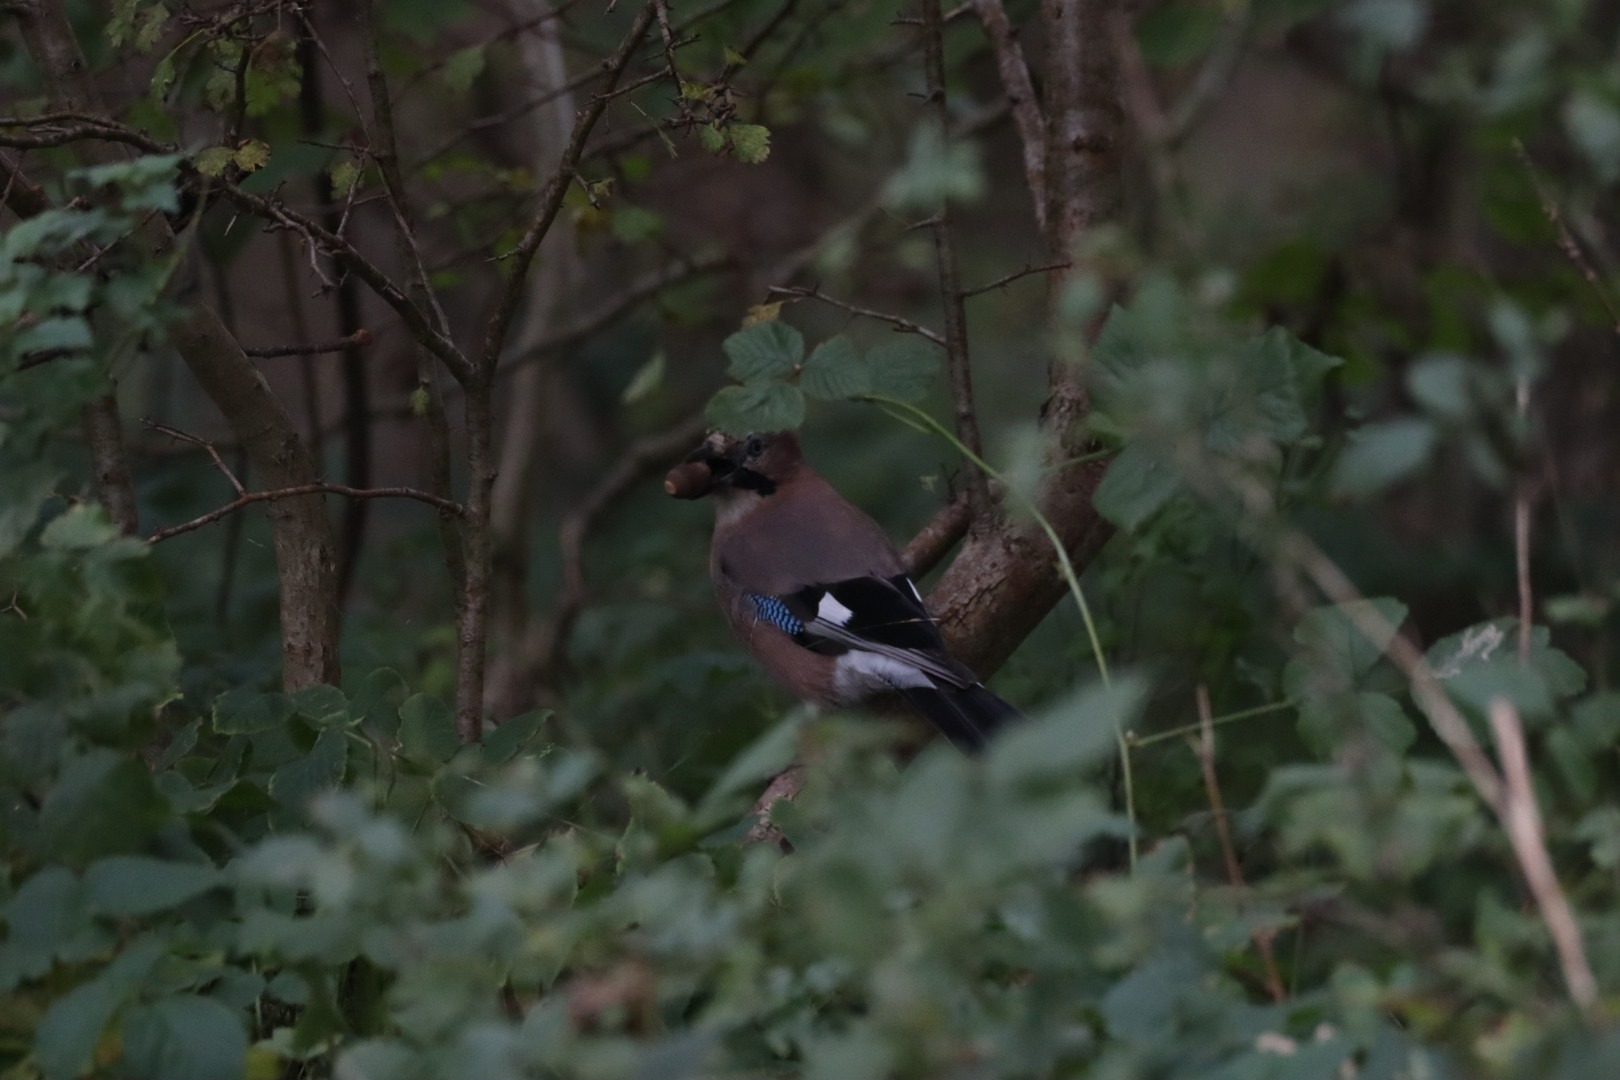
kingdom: Animalia
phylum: Chordata
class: Aves
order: Passeriformes
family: Corvidae
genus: Garrulus
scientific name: Garrulus glandarius
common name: Skovskade
